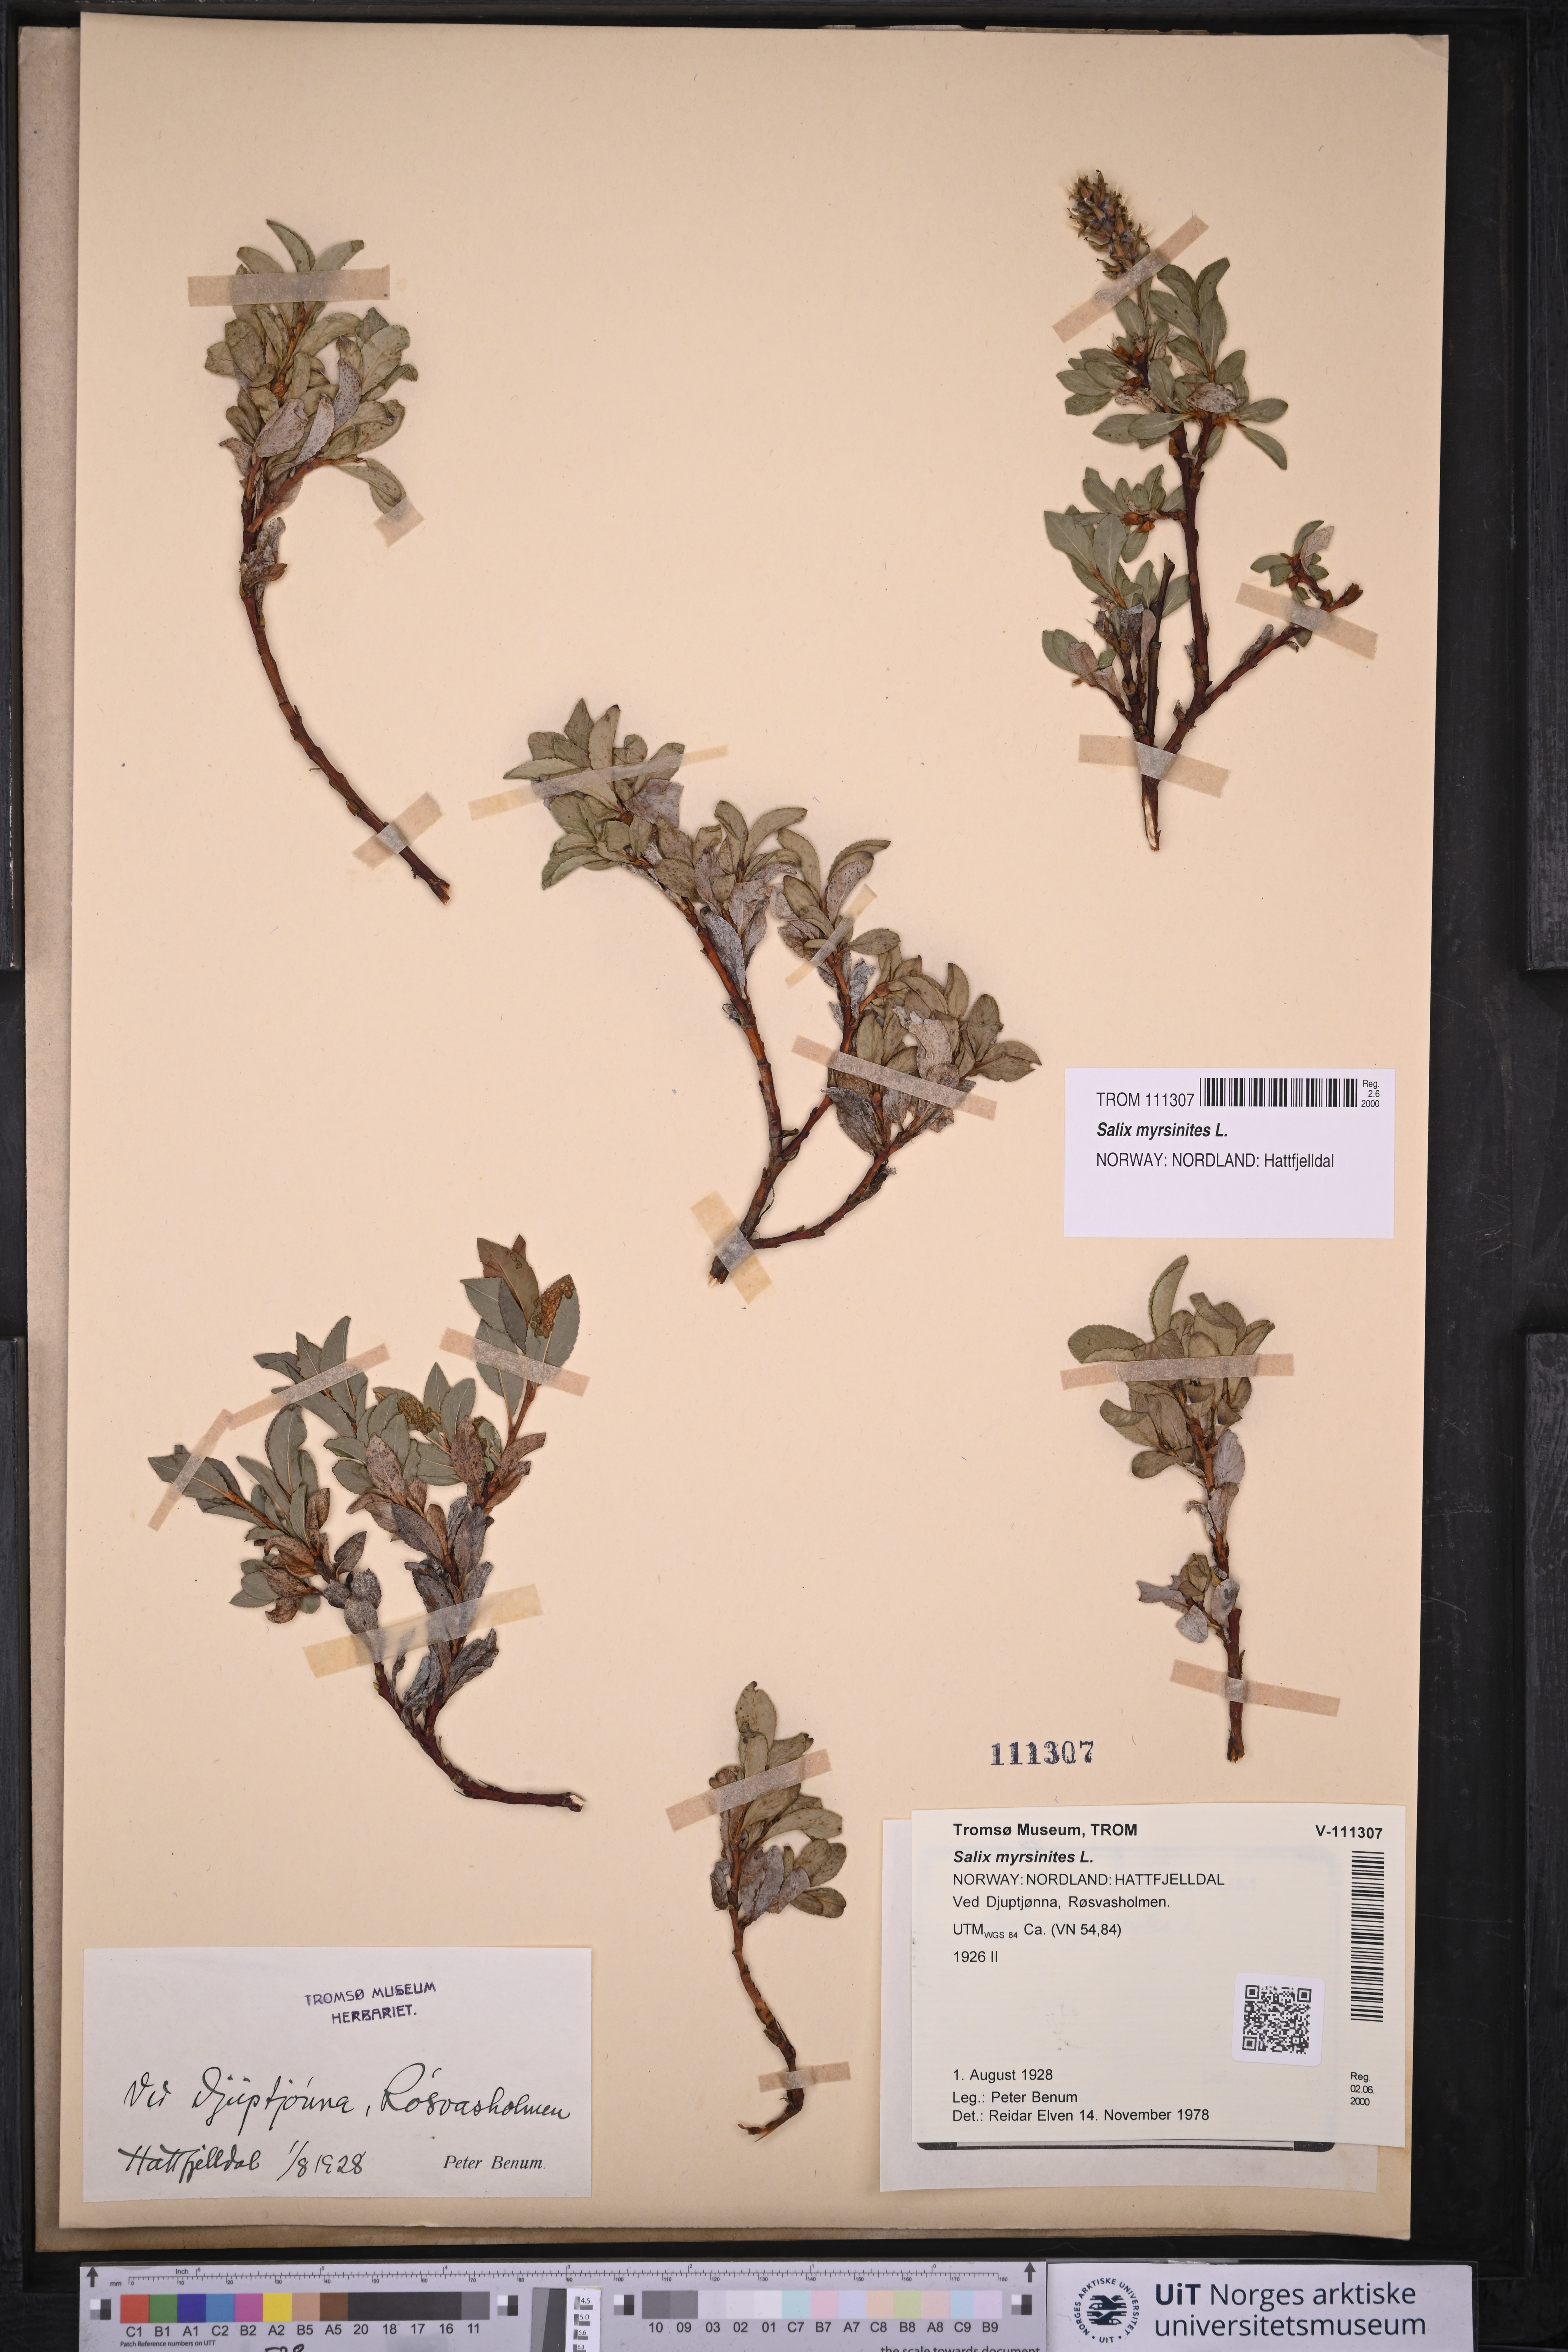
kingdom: Plantae
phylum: Tracheophyta
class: Magnoliopsida
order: Malpighiales
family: Salicaceae
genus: Salix
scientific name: Salix myrsinites
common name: Myrtle willow
